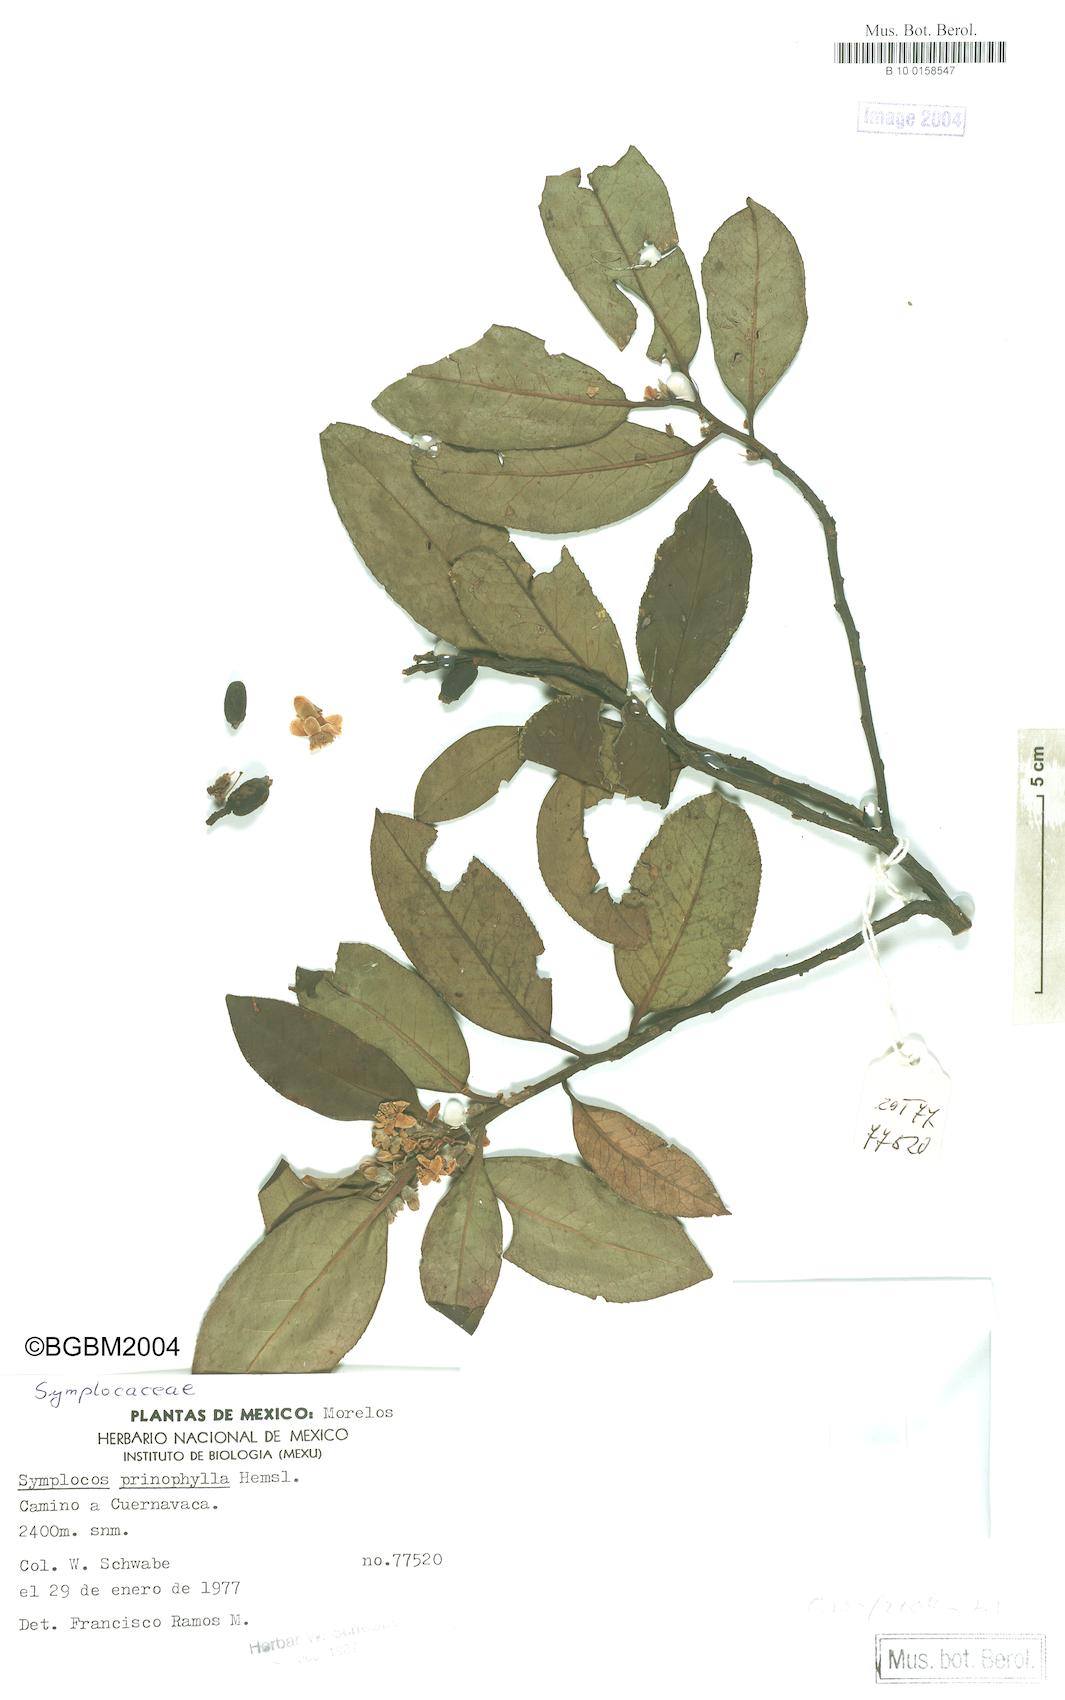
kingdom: Plantae
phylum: Tracheophyta
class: Magnoliopsida
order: Ericales
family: Symplocaceae
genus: Symplocos
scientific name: Symplocos citrea
